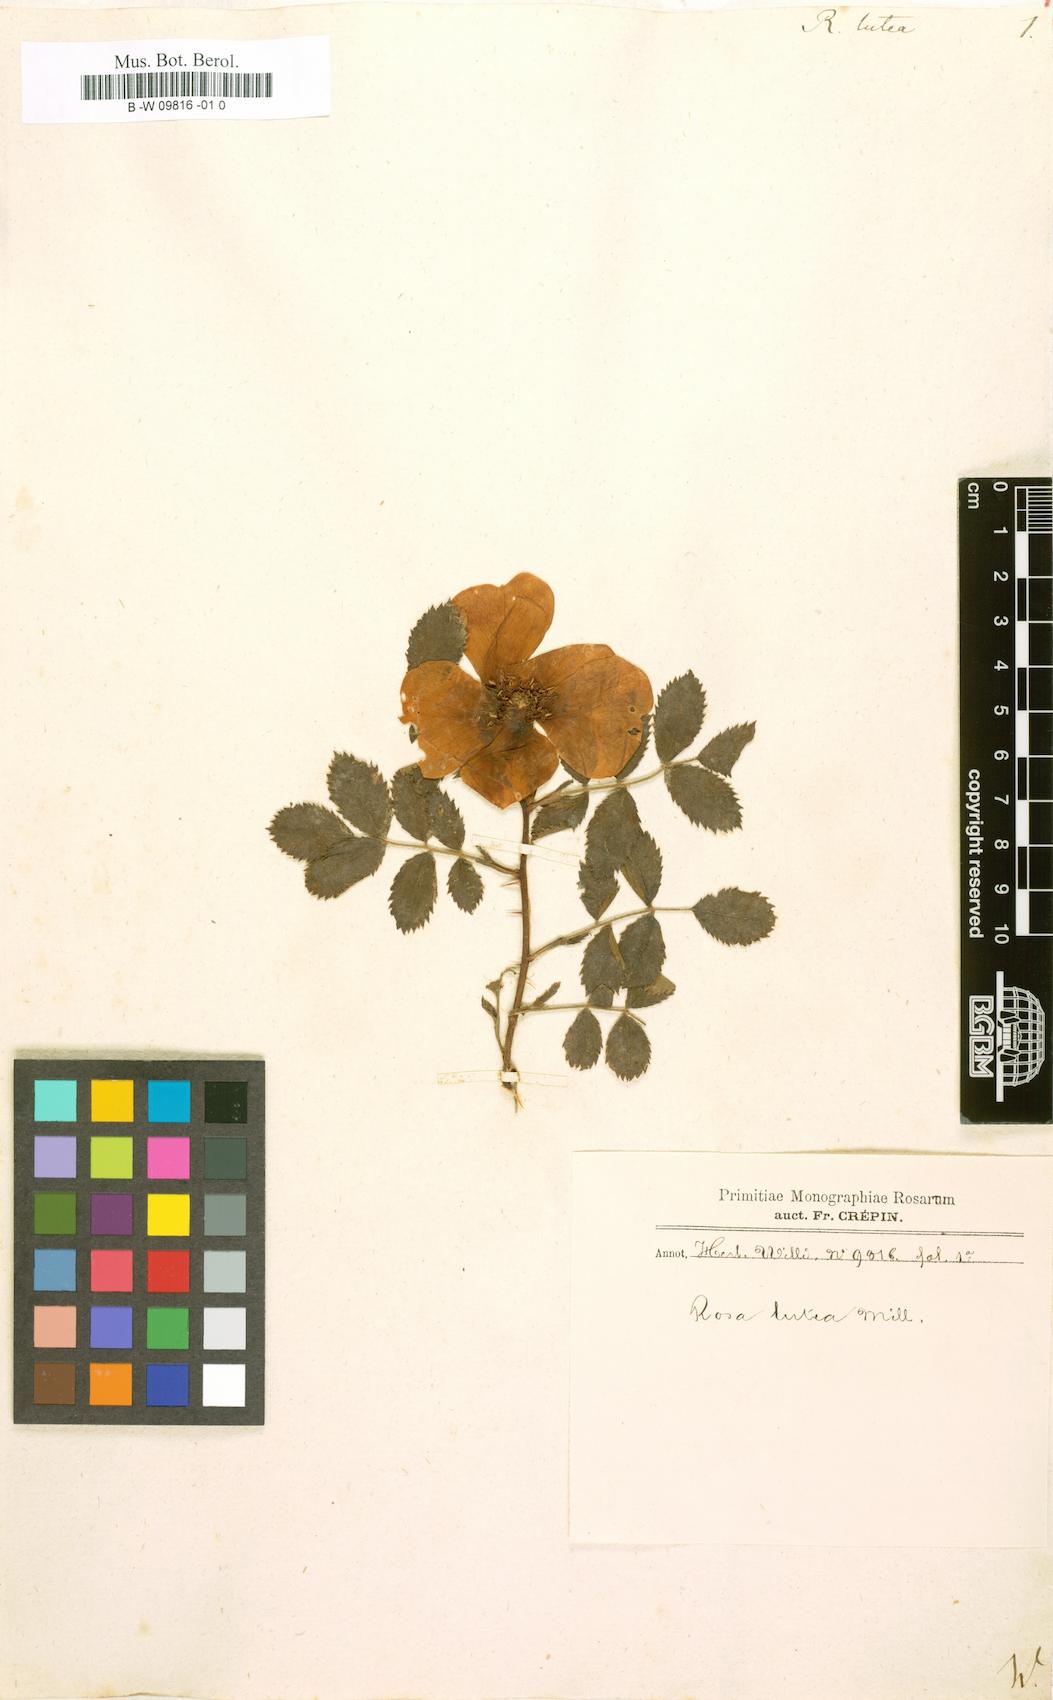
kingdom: Plantae
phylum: Tracheophyta
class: Magnoliopsida
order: Rosales
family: Rosaceae
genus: Rosa
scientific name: Rosa foetida
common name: Persian yellow rose
